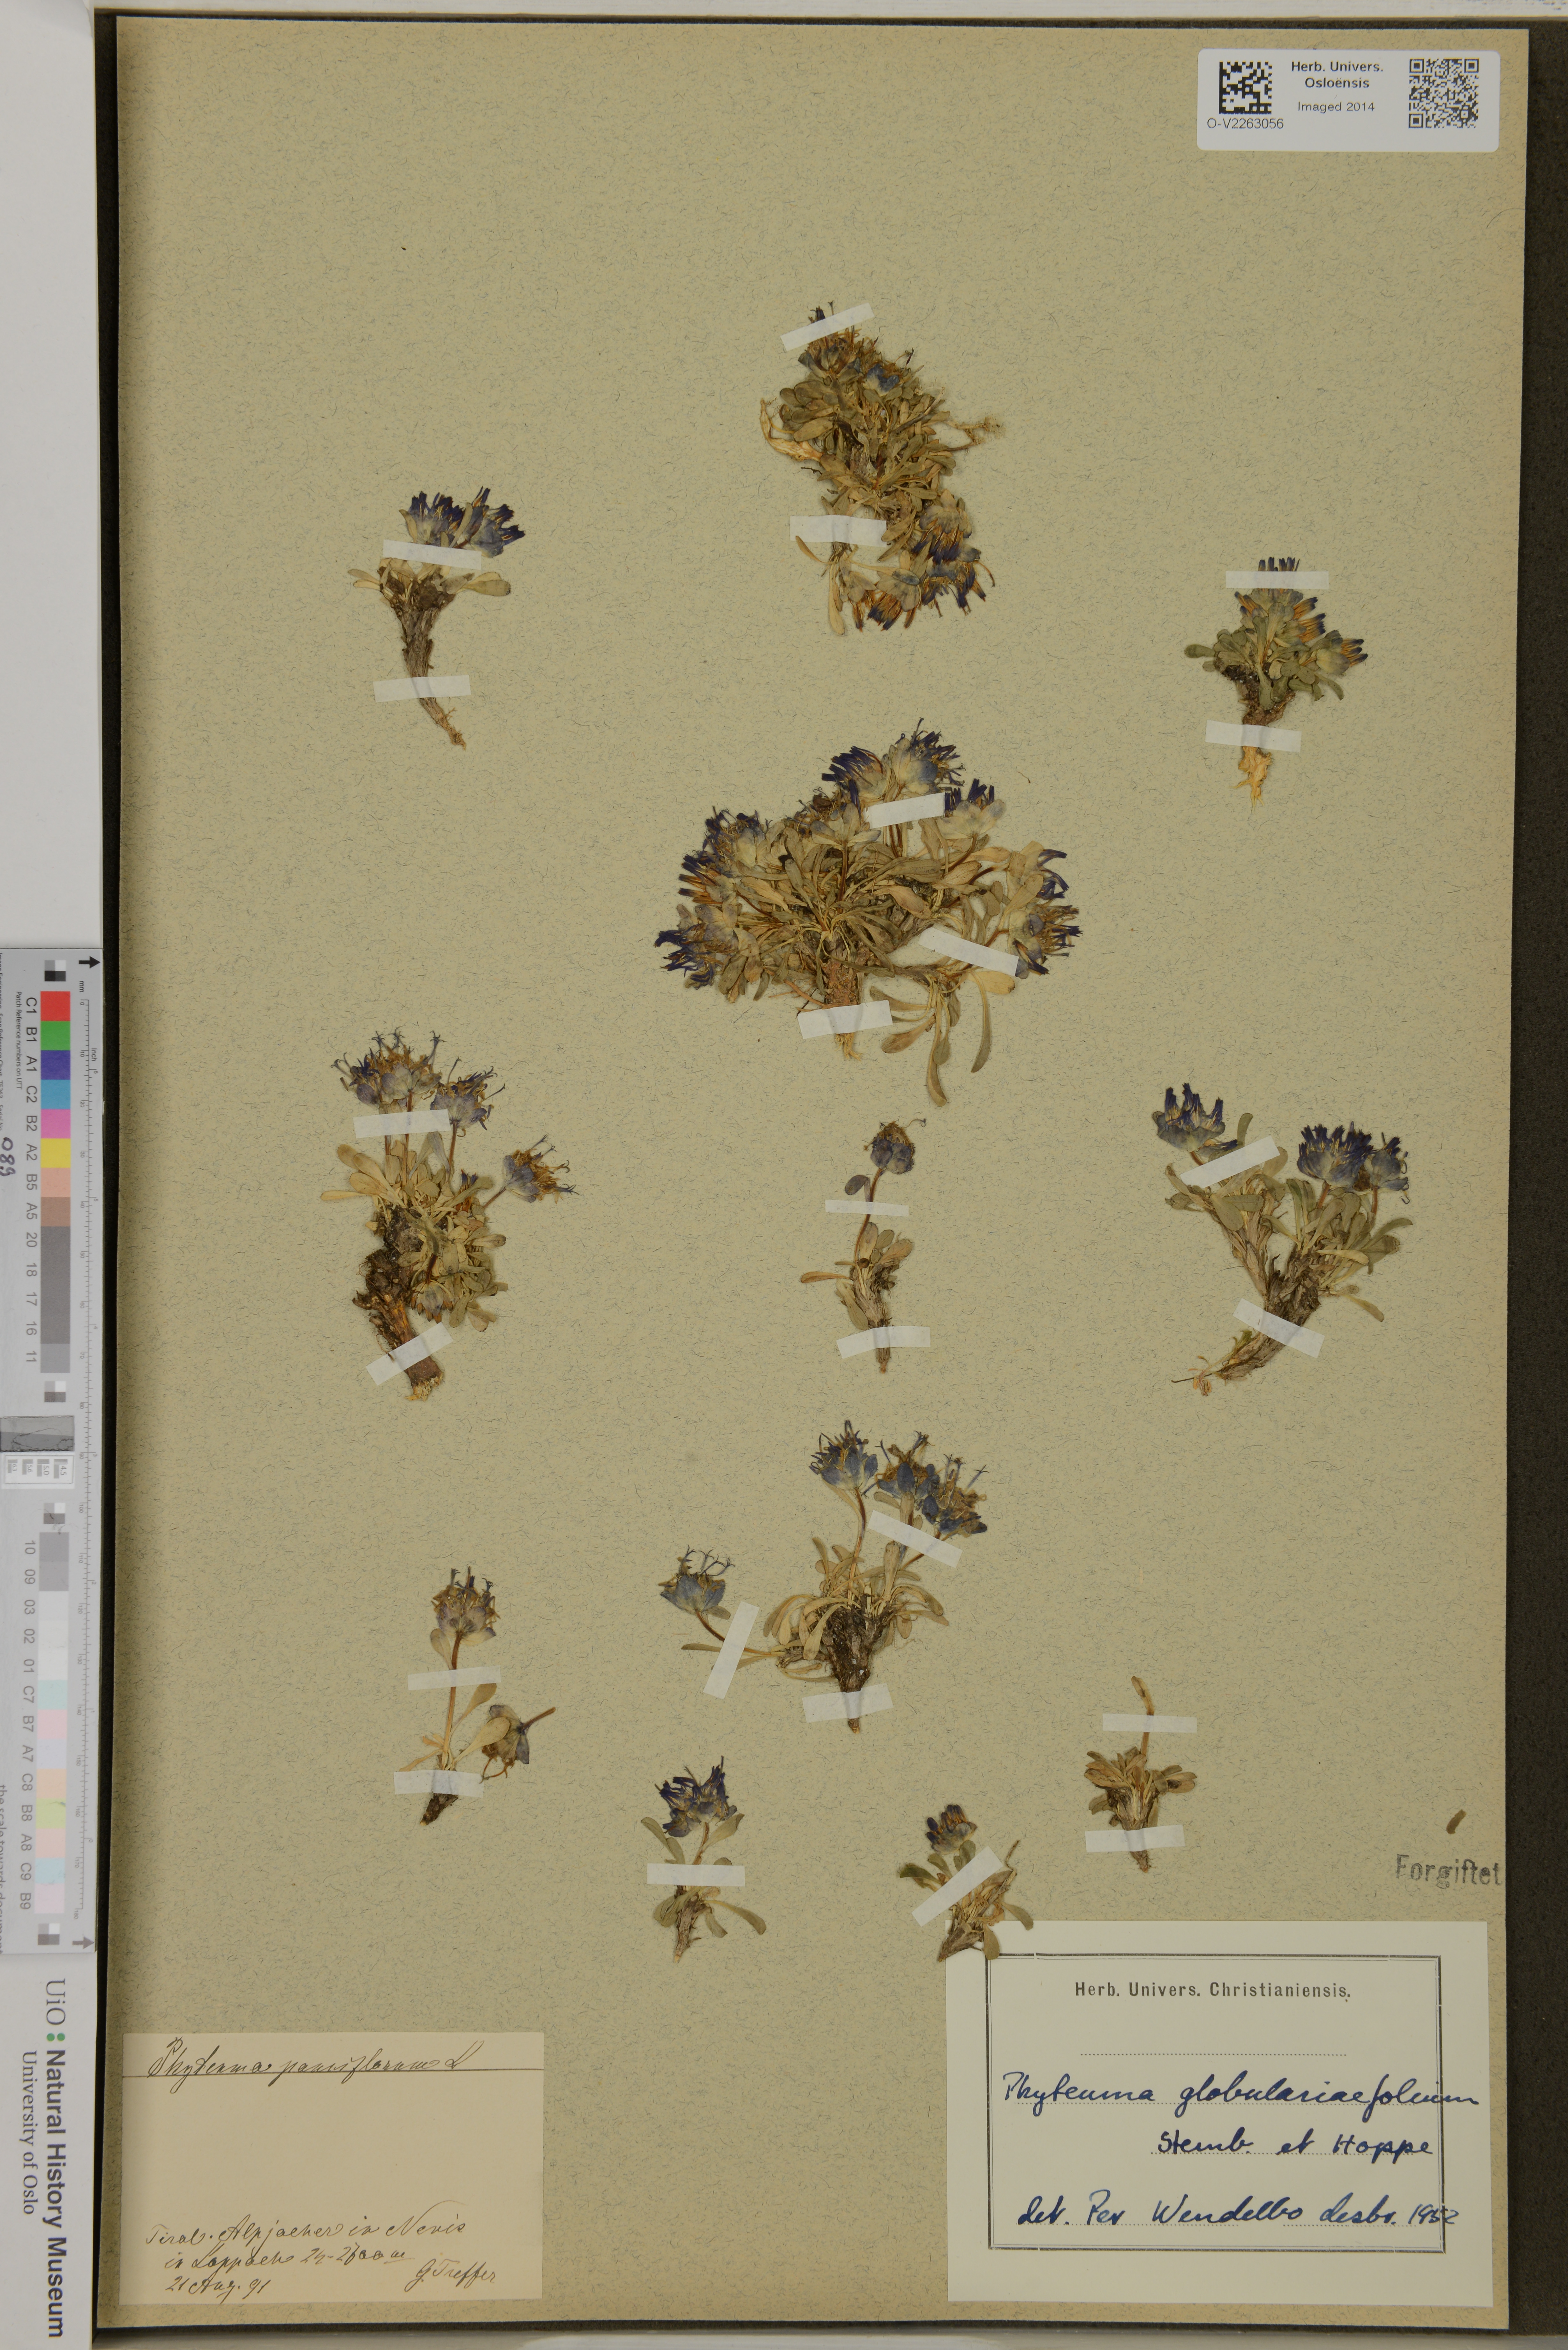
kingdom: Plantae
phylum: Tracheophyta
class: Magnoliopsida
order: Asterales
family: Campanulaceae
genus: Phyteuma
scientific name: Phyteuma globulariifolium
